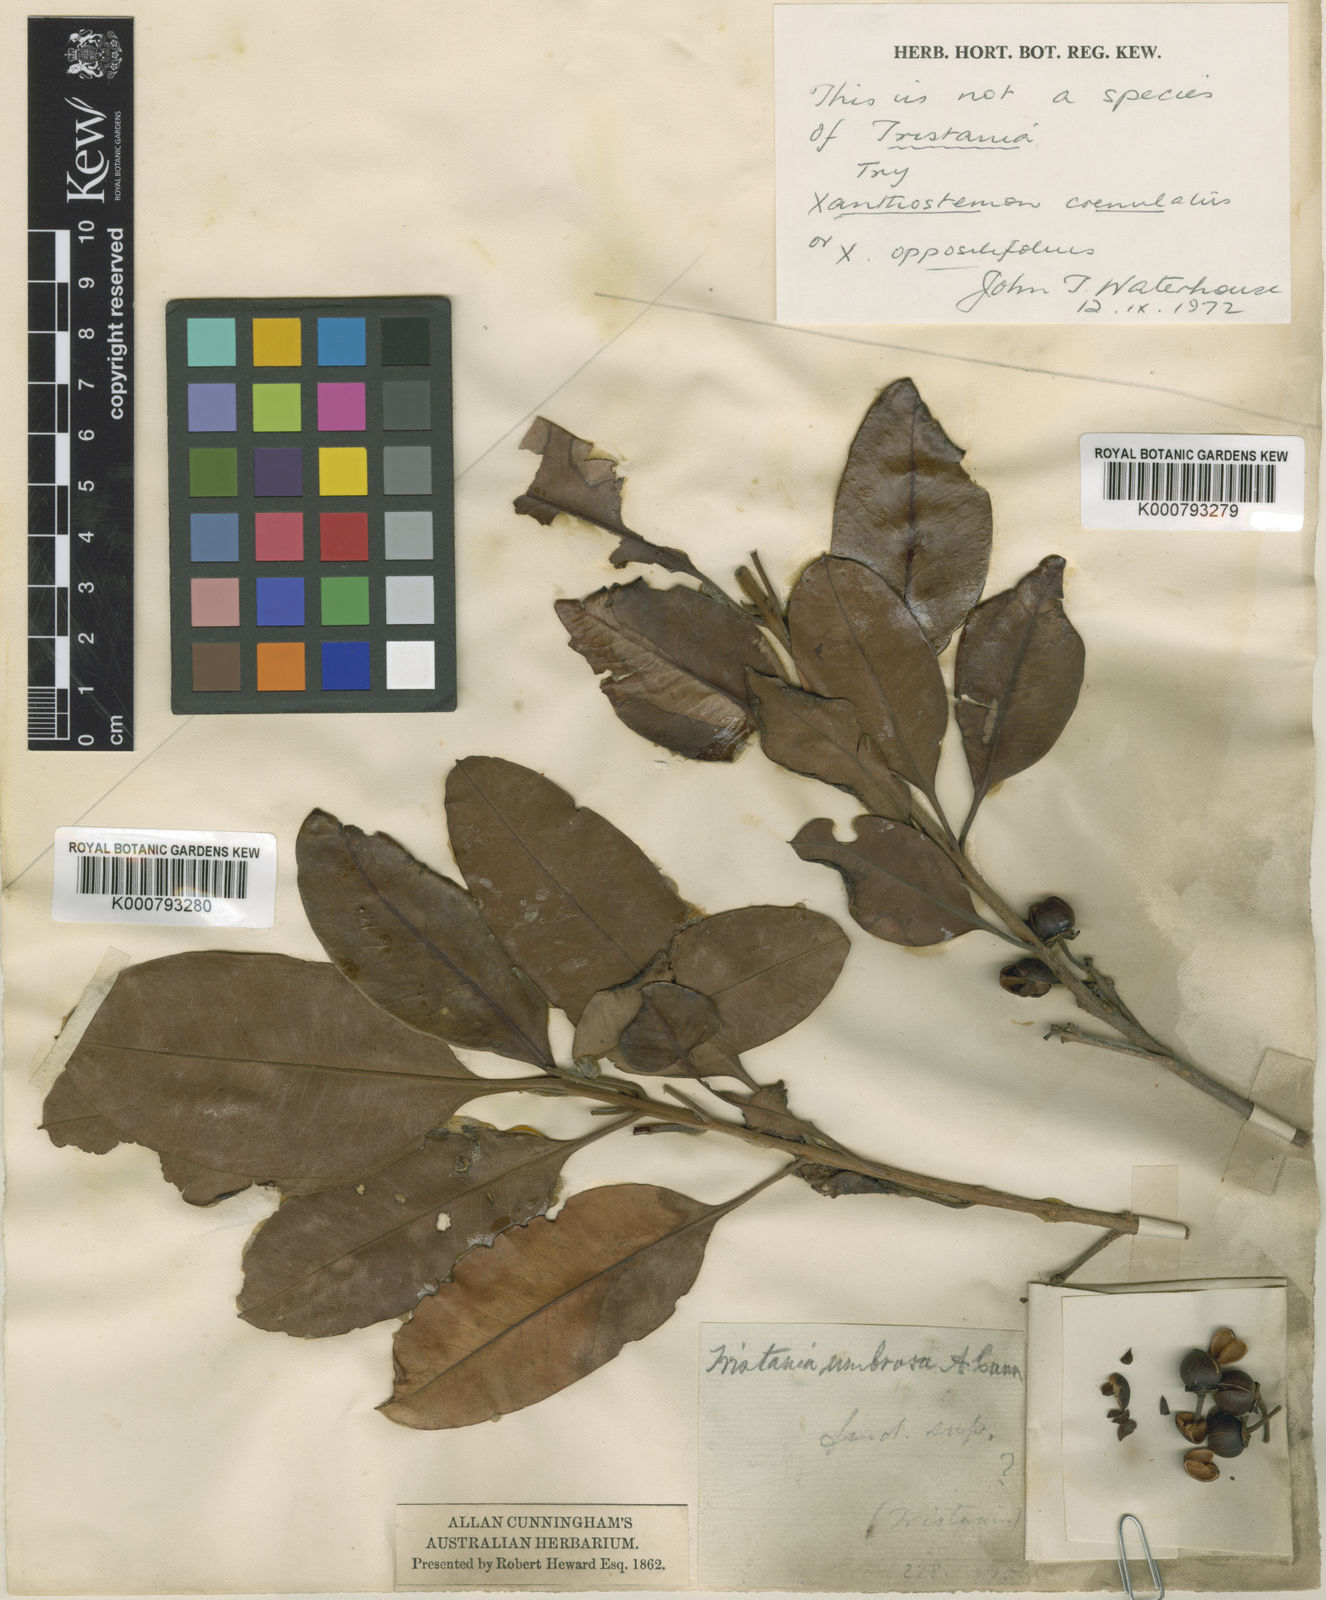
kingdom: Plantae
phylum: Tracheophyta
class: Magnoliopsida
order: Myrtales
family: Myrtaceae
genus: Xanthostemon
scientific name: Xanthostemon umbrosus
